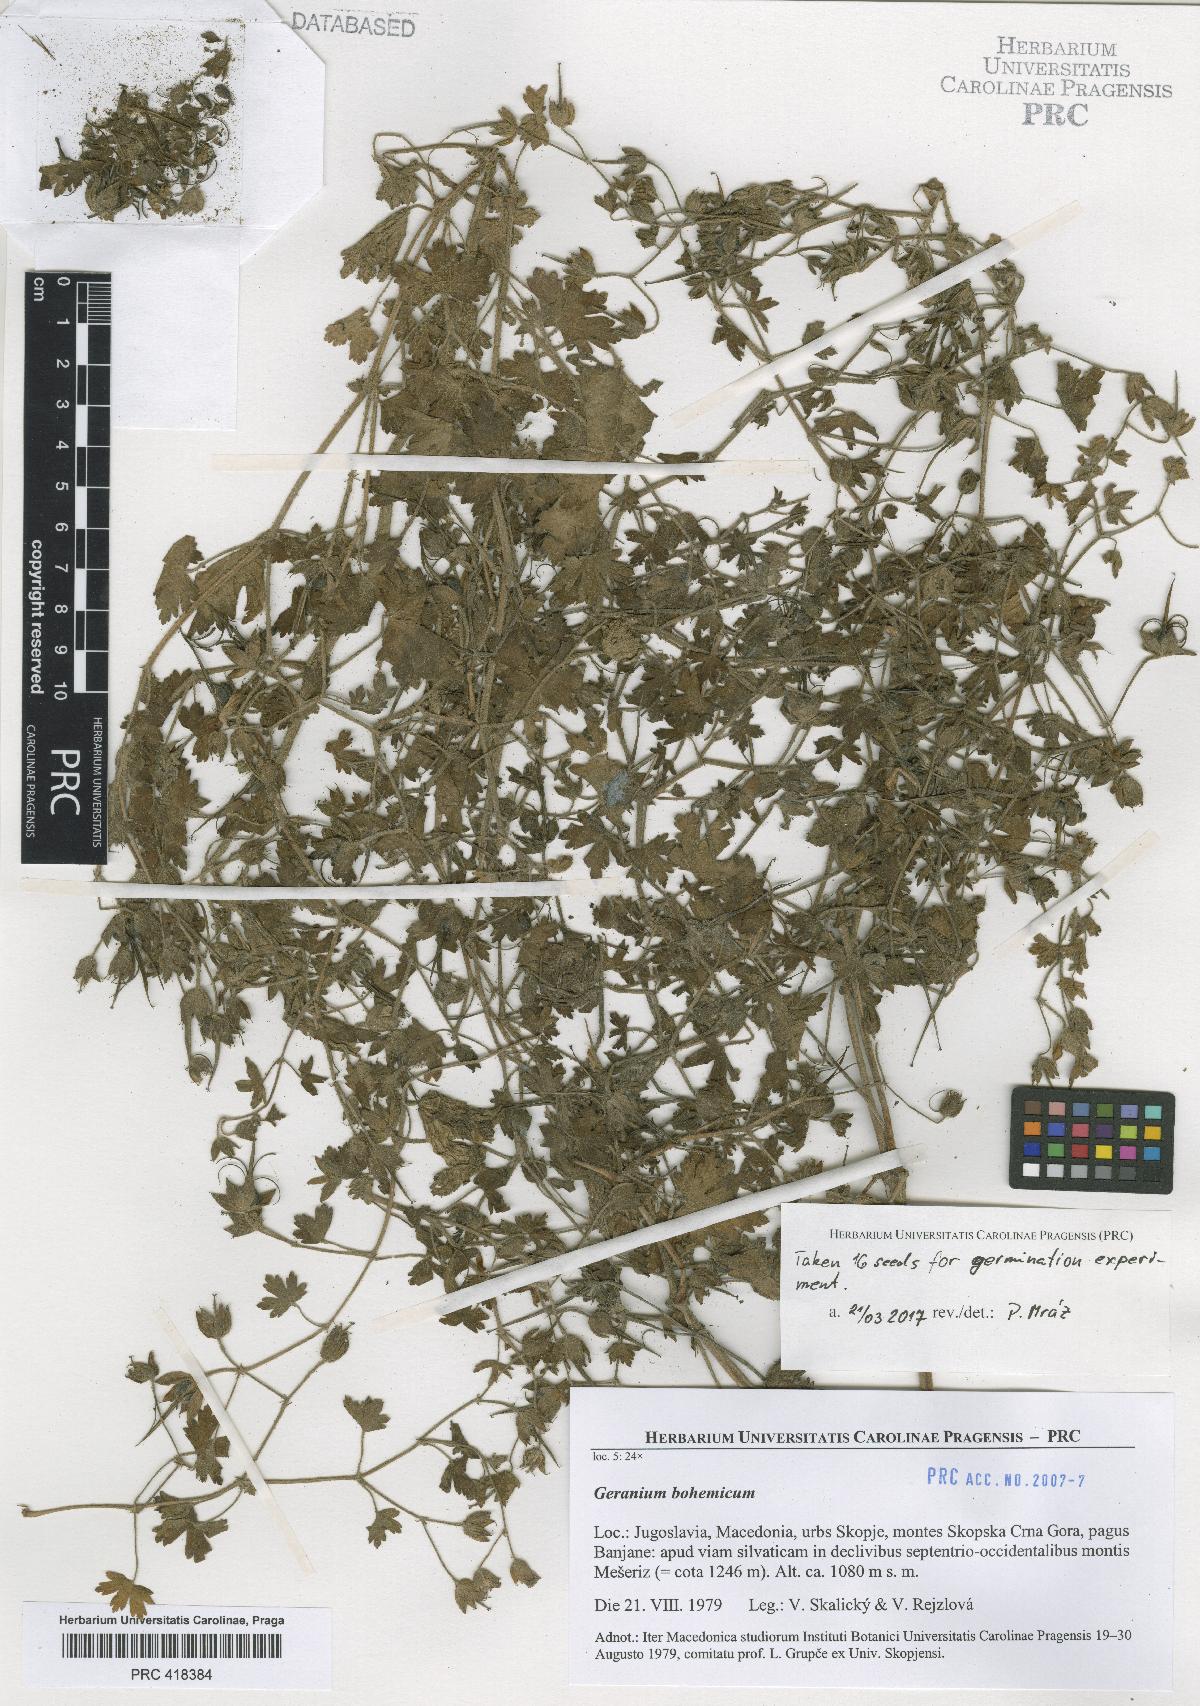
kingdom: Plantae
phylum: Tracheophyta
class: Magnoliopsida
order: Geraniales
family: Geraniaceae
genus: Geranium
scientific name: Geranium bohemicum
